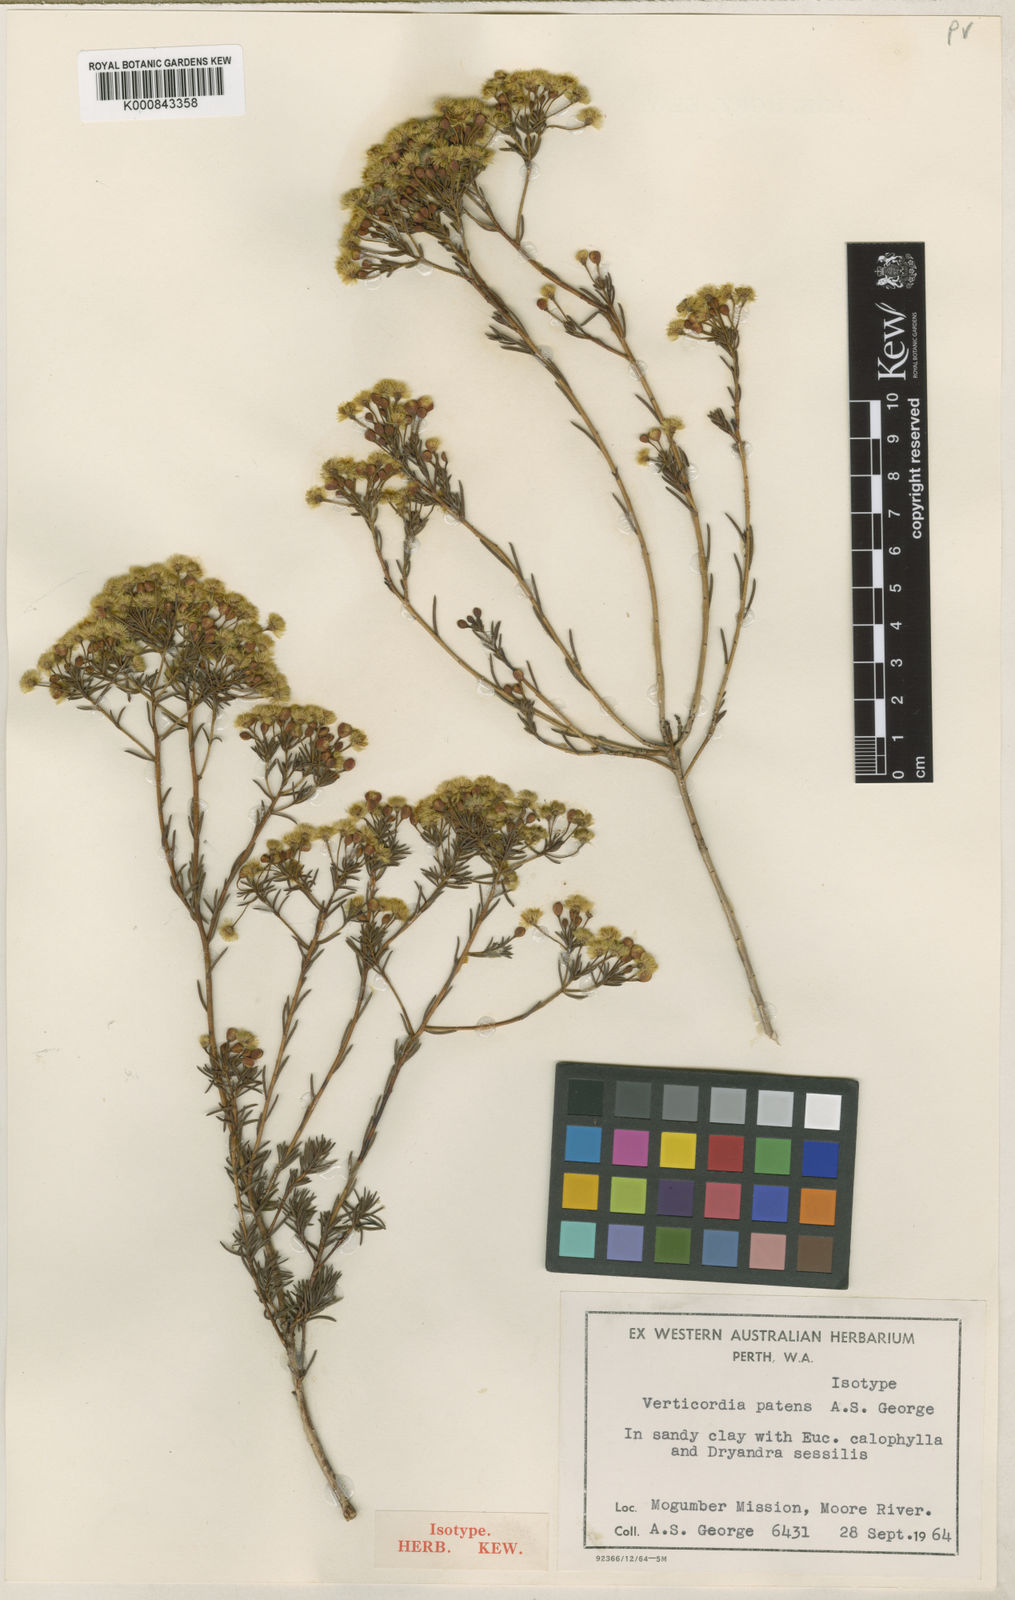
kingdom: Plantae
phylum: Tracheophyta
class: Magnoliopsida
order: Myrtales
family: Myrtaceae
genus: Verticordia
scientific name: Verticordia patens
